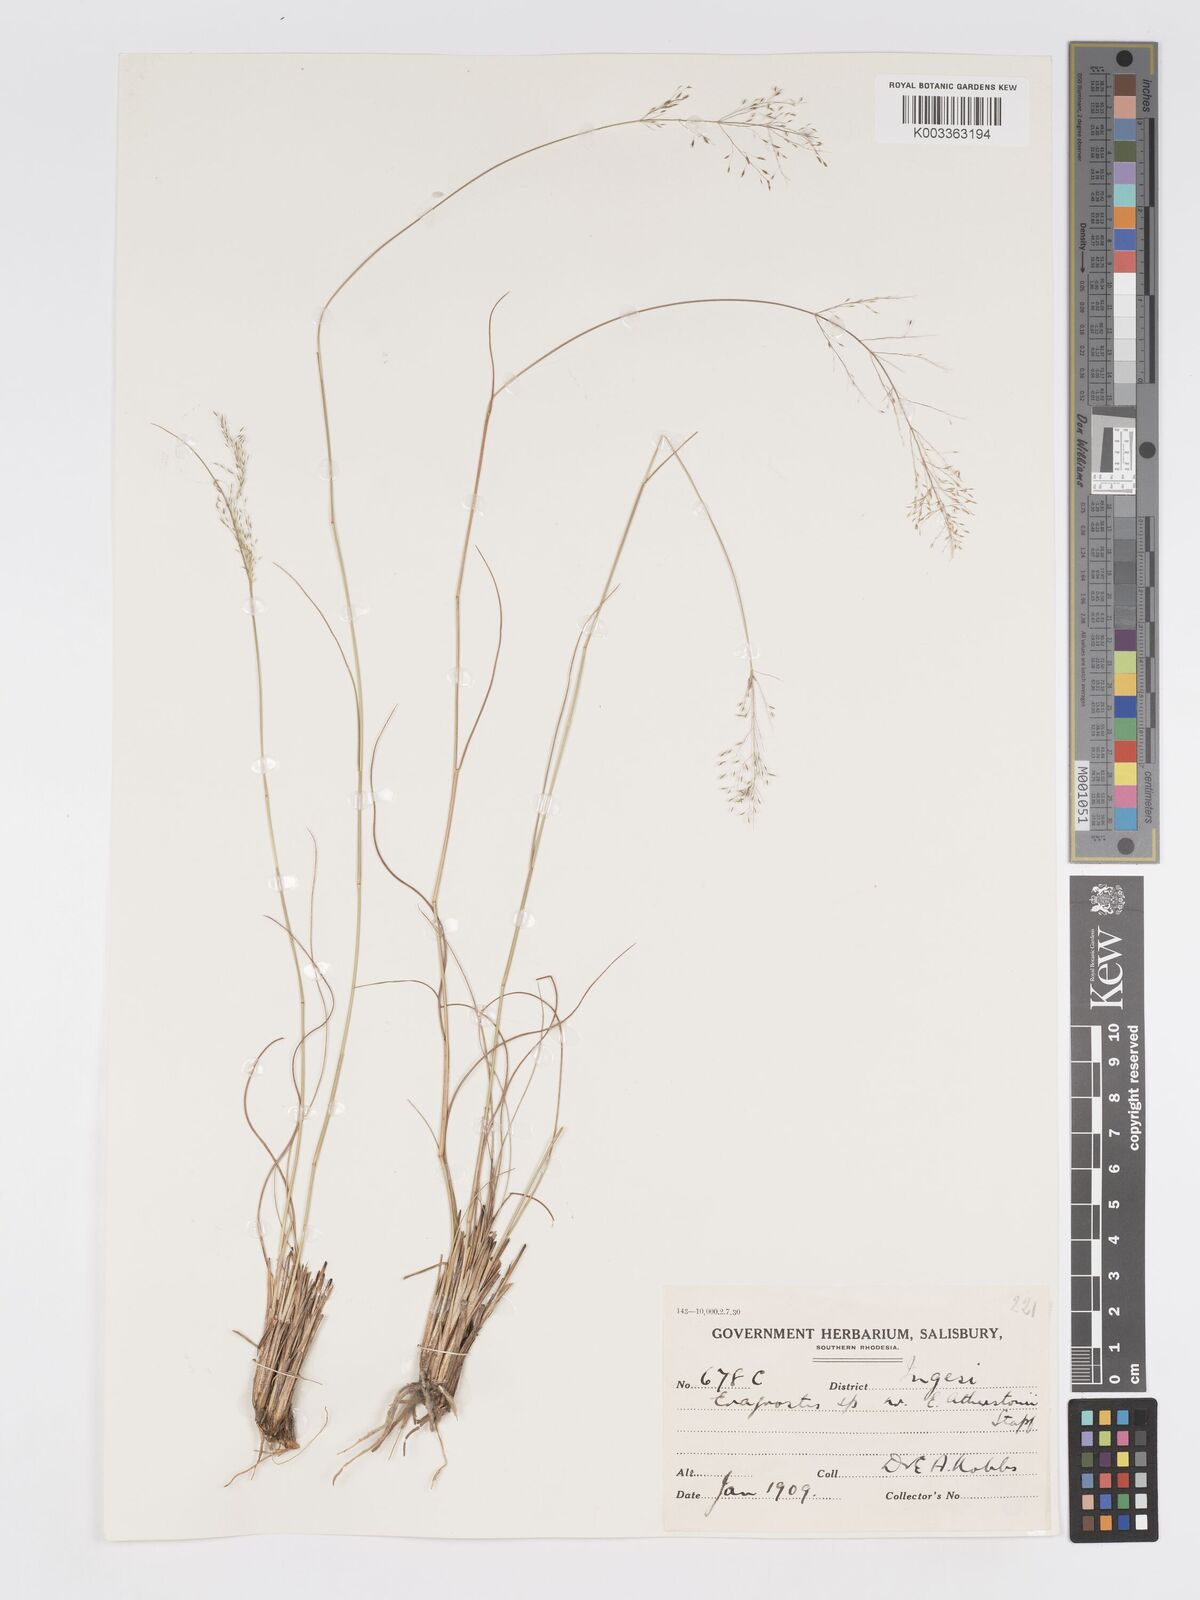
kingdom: Plantae
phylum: Tracheophyta
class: Liliopsida
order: Poales
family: Poaceae
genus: Eragrostis
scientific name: Eragrostis stapfii
